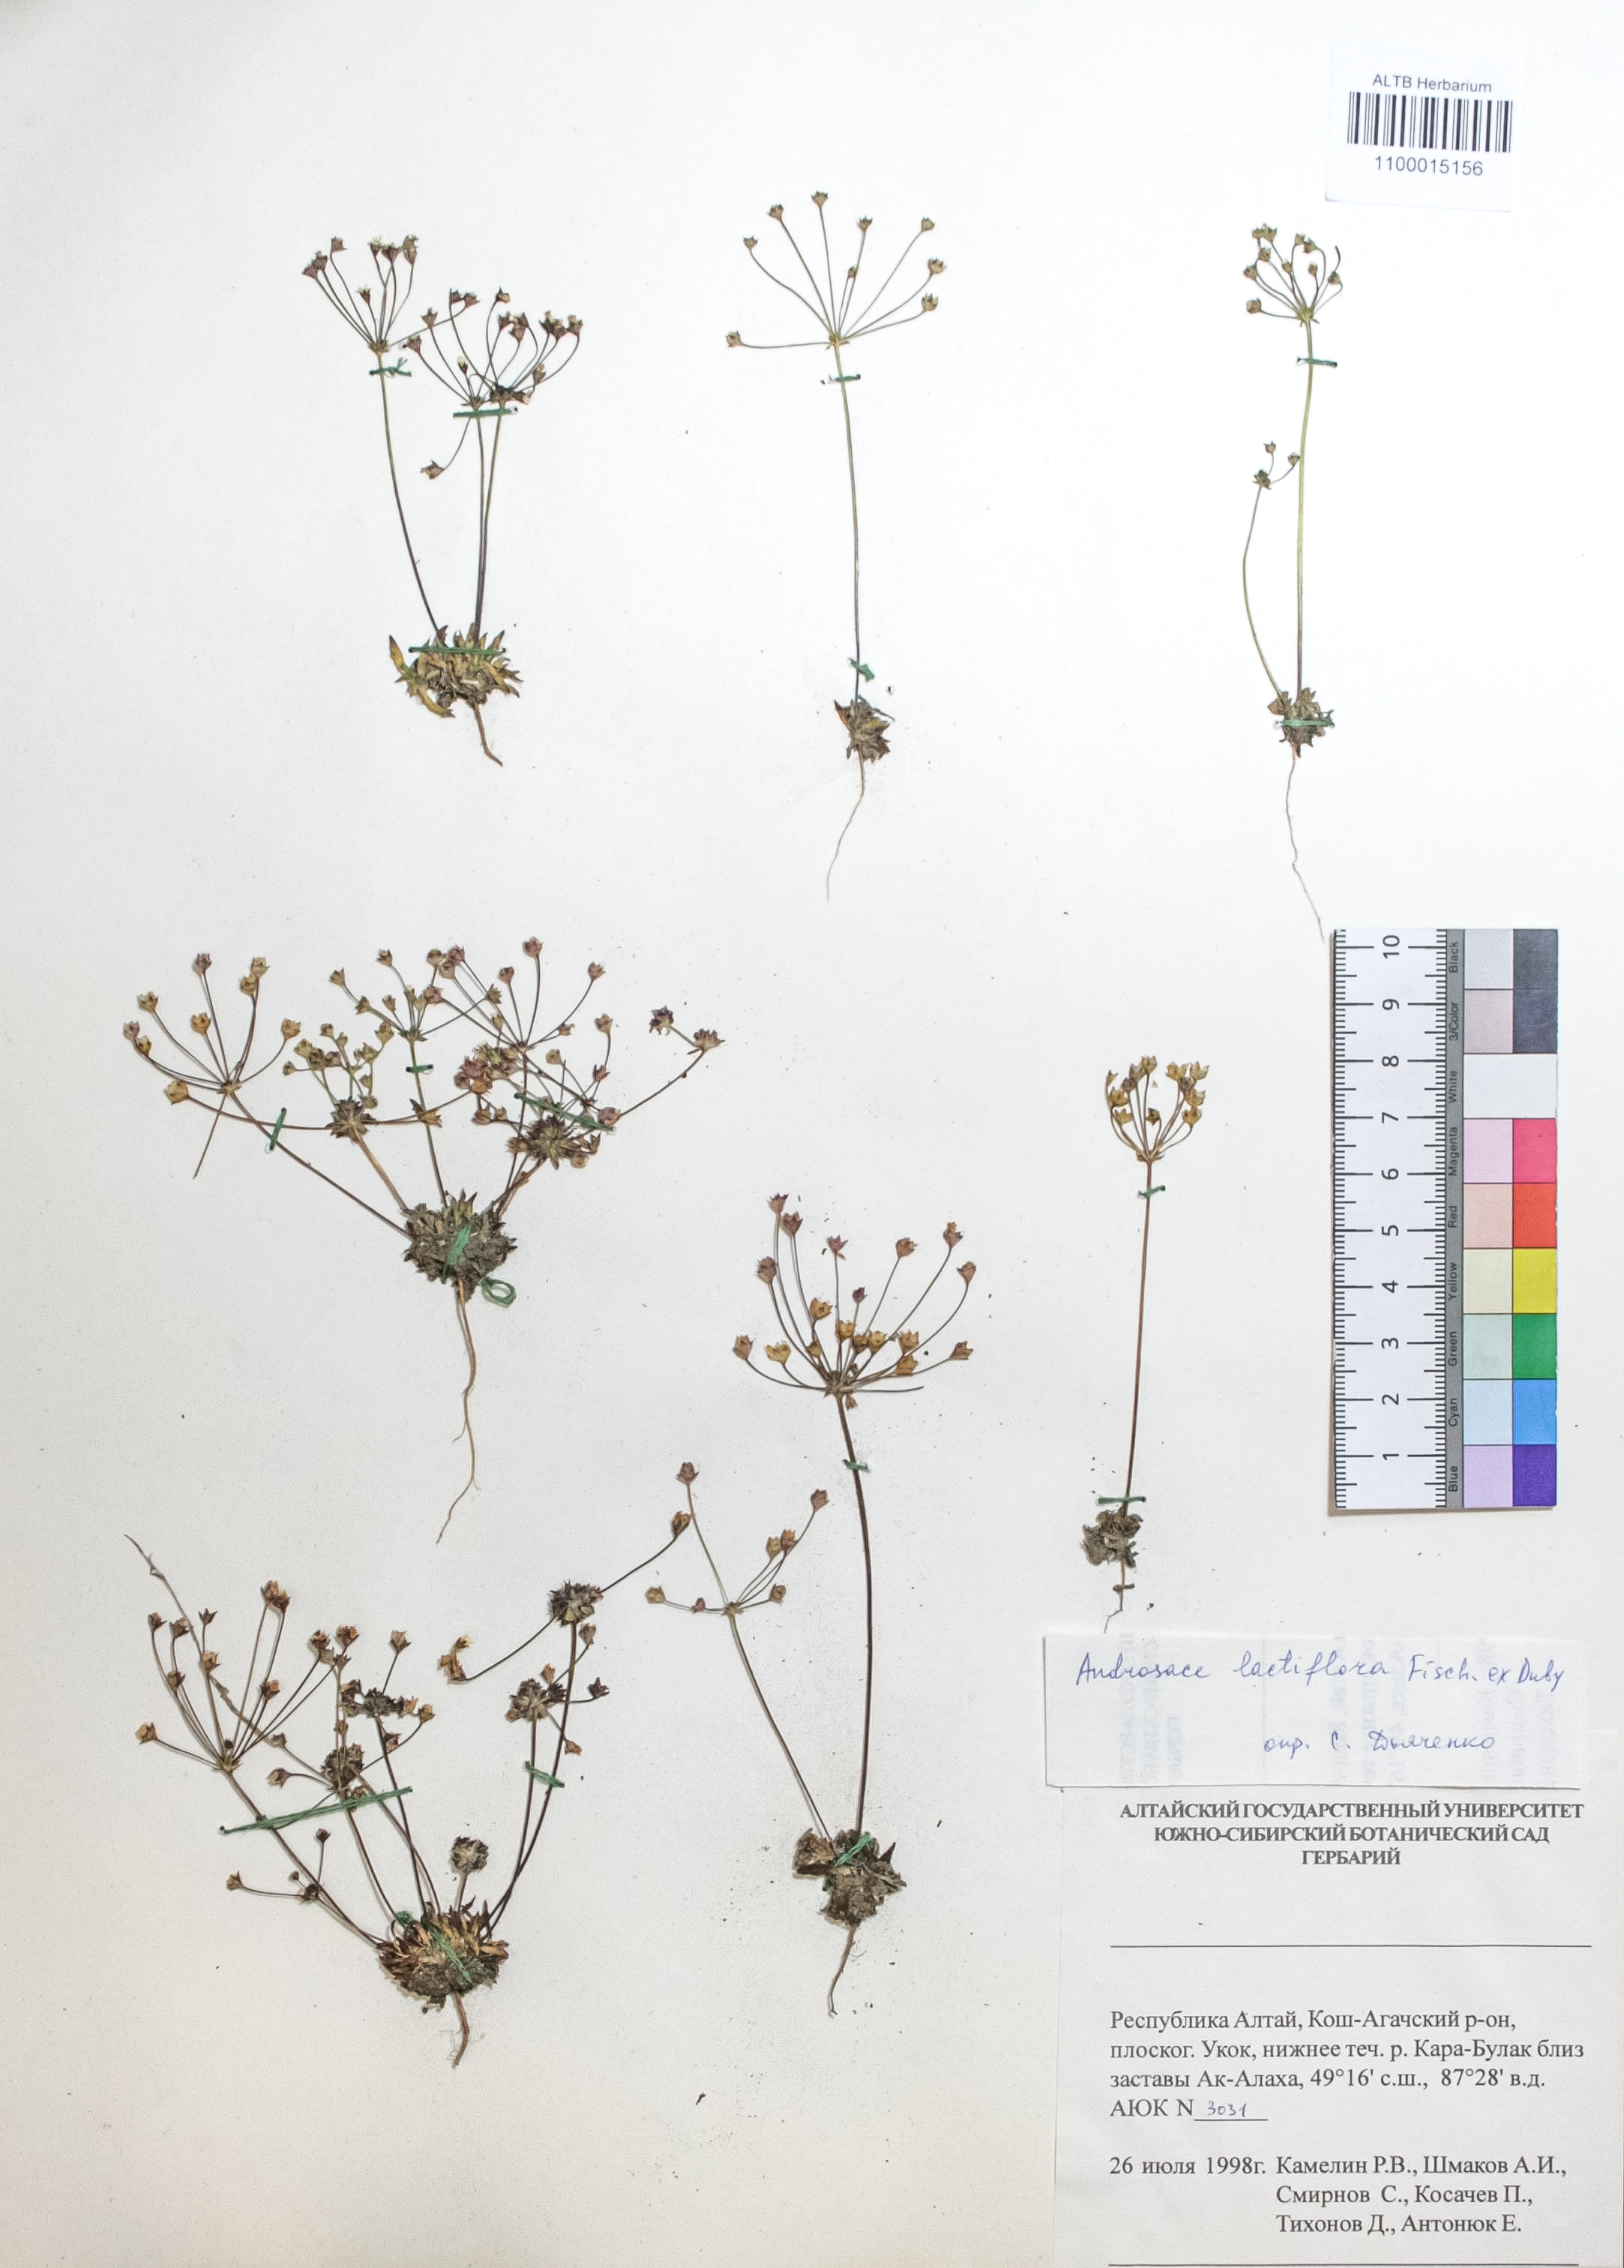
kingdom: Plantae
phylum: Tracheophyta
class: Magnoliopsida
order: Ericales
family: Primulaceae
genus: Androsace
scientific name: Androsace lactiflora
